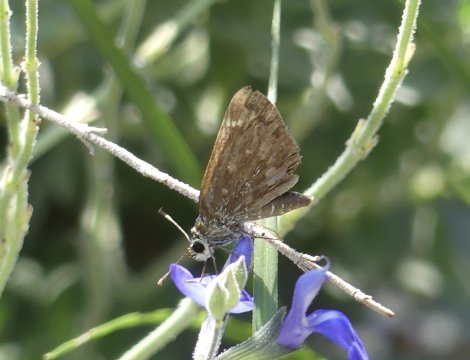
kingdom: Animalia
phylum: Arthropoda
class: Insecta
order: Lepidoptera
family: Hesperiidae
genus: Mastor
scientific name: Mastor cassus
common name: Cassus Roadside-Skipper
